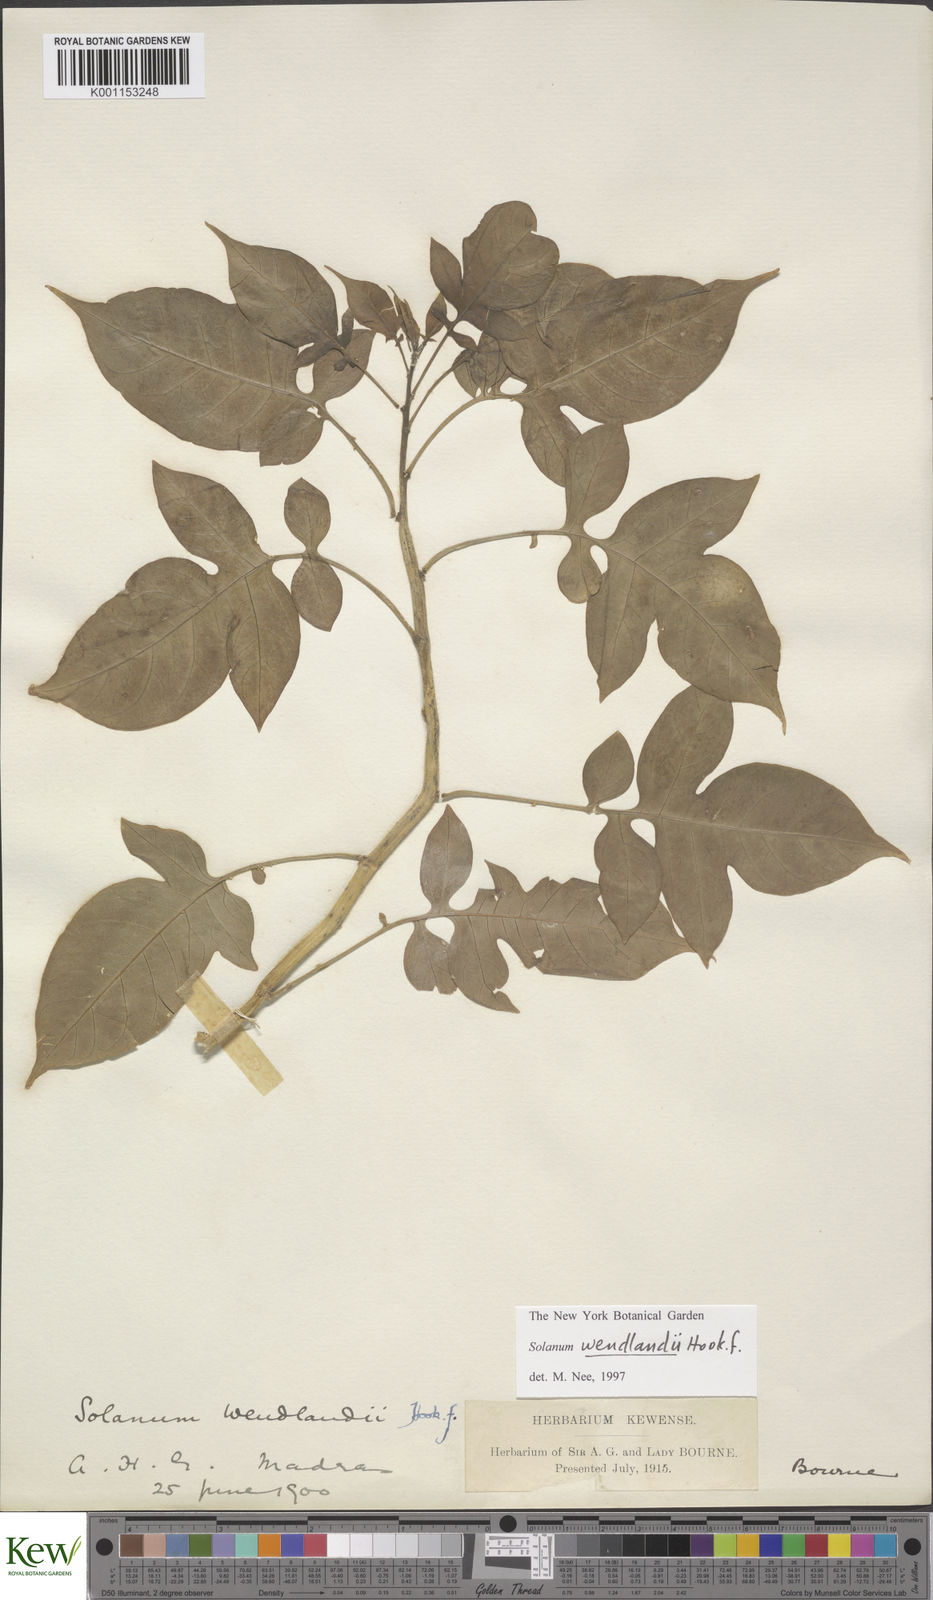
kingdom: Plantae
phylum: Tracheophyta
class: Magnoliopsida
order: Solanales
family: Solanaceae
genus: Solanum
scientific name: Solanum wendlandii
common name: Costa rican nightshade
